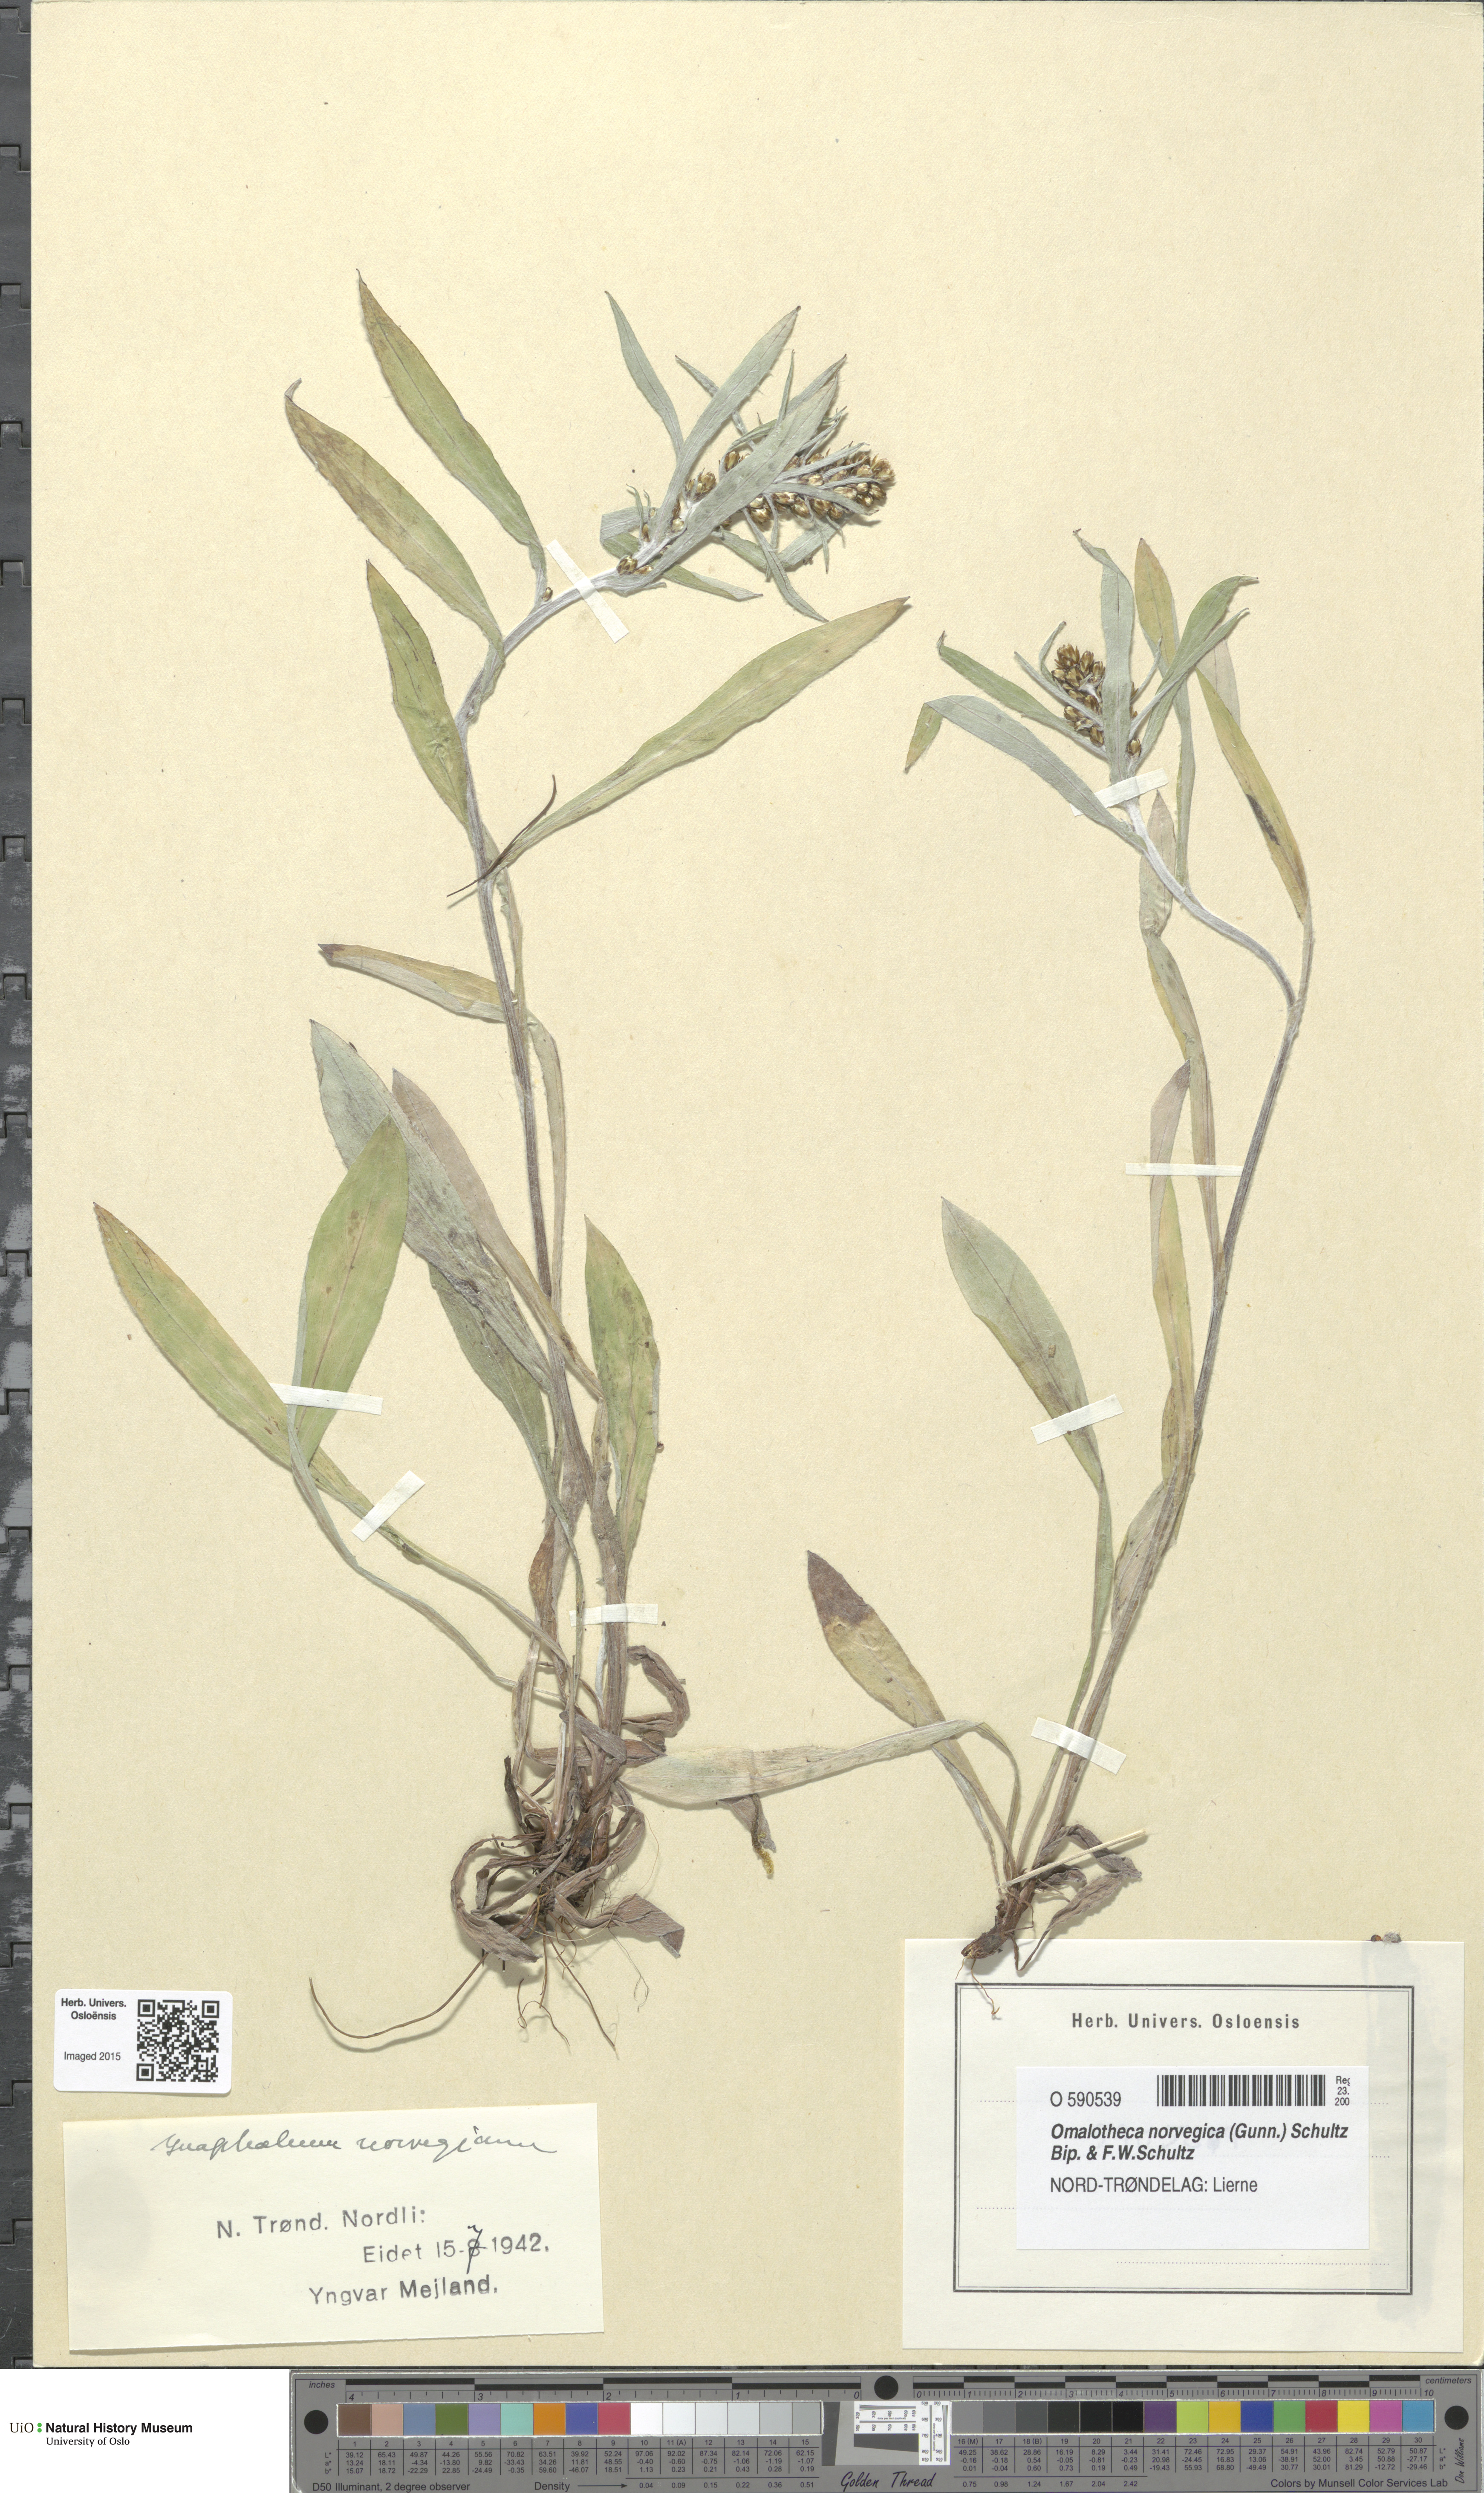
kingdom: Plantae
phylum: Tracheophyta
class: Magnoliopsida
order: Asterales
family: Asteraceae
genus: Omalotheca
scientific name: Omalotheca norvegica
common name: Norwegian arctic-cudweed
